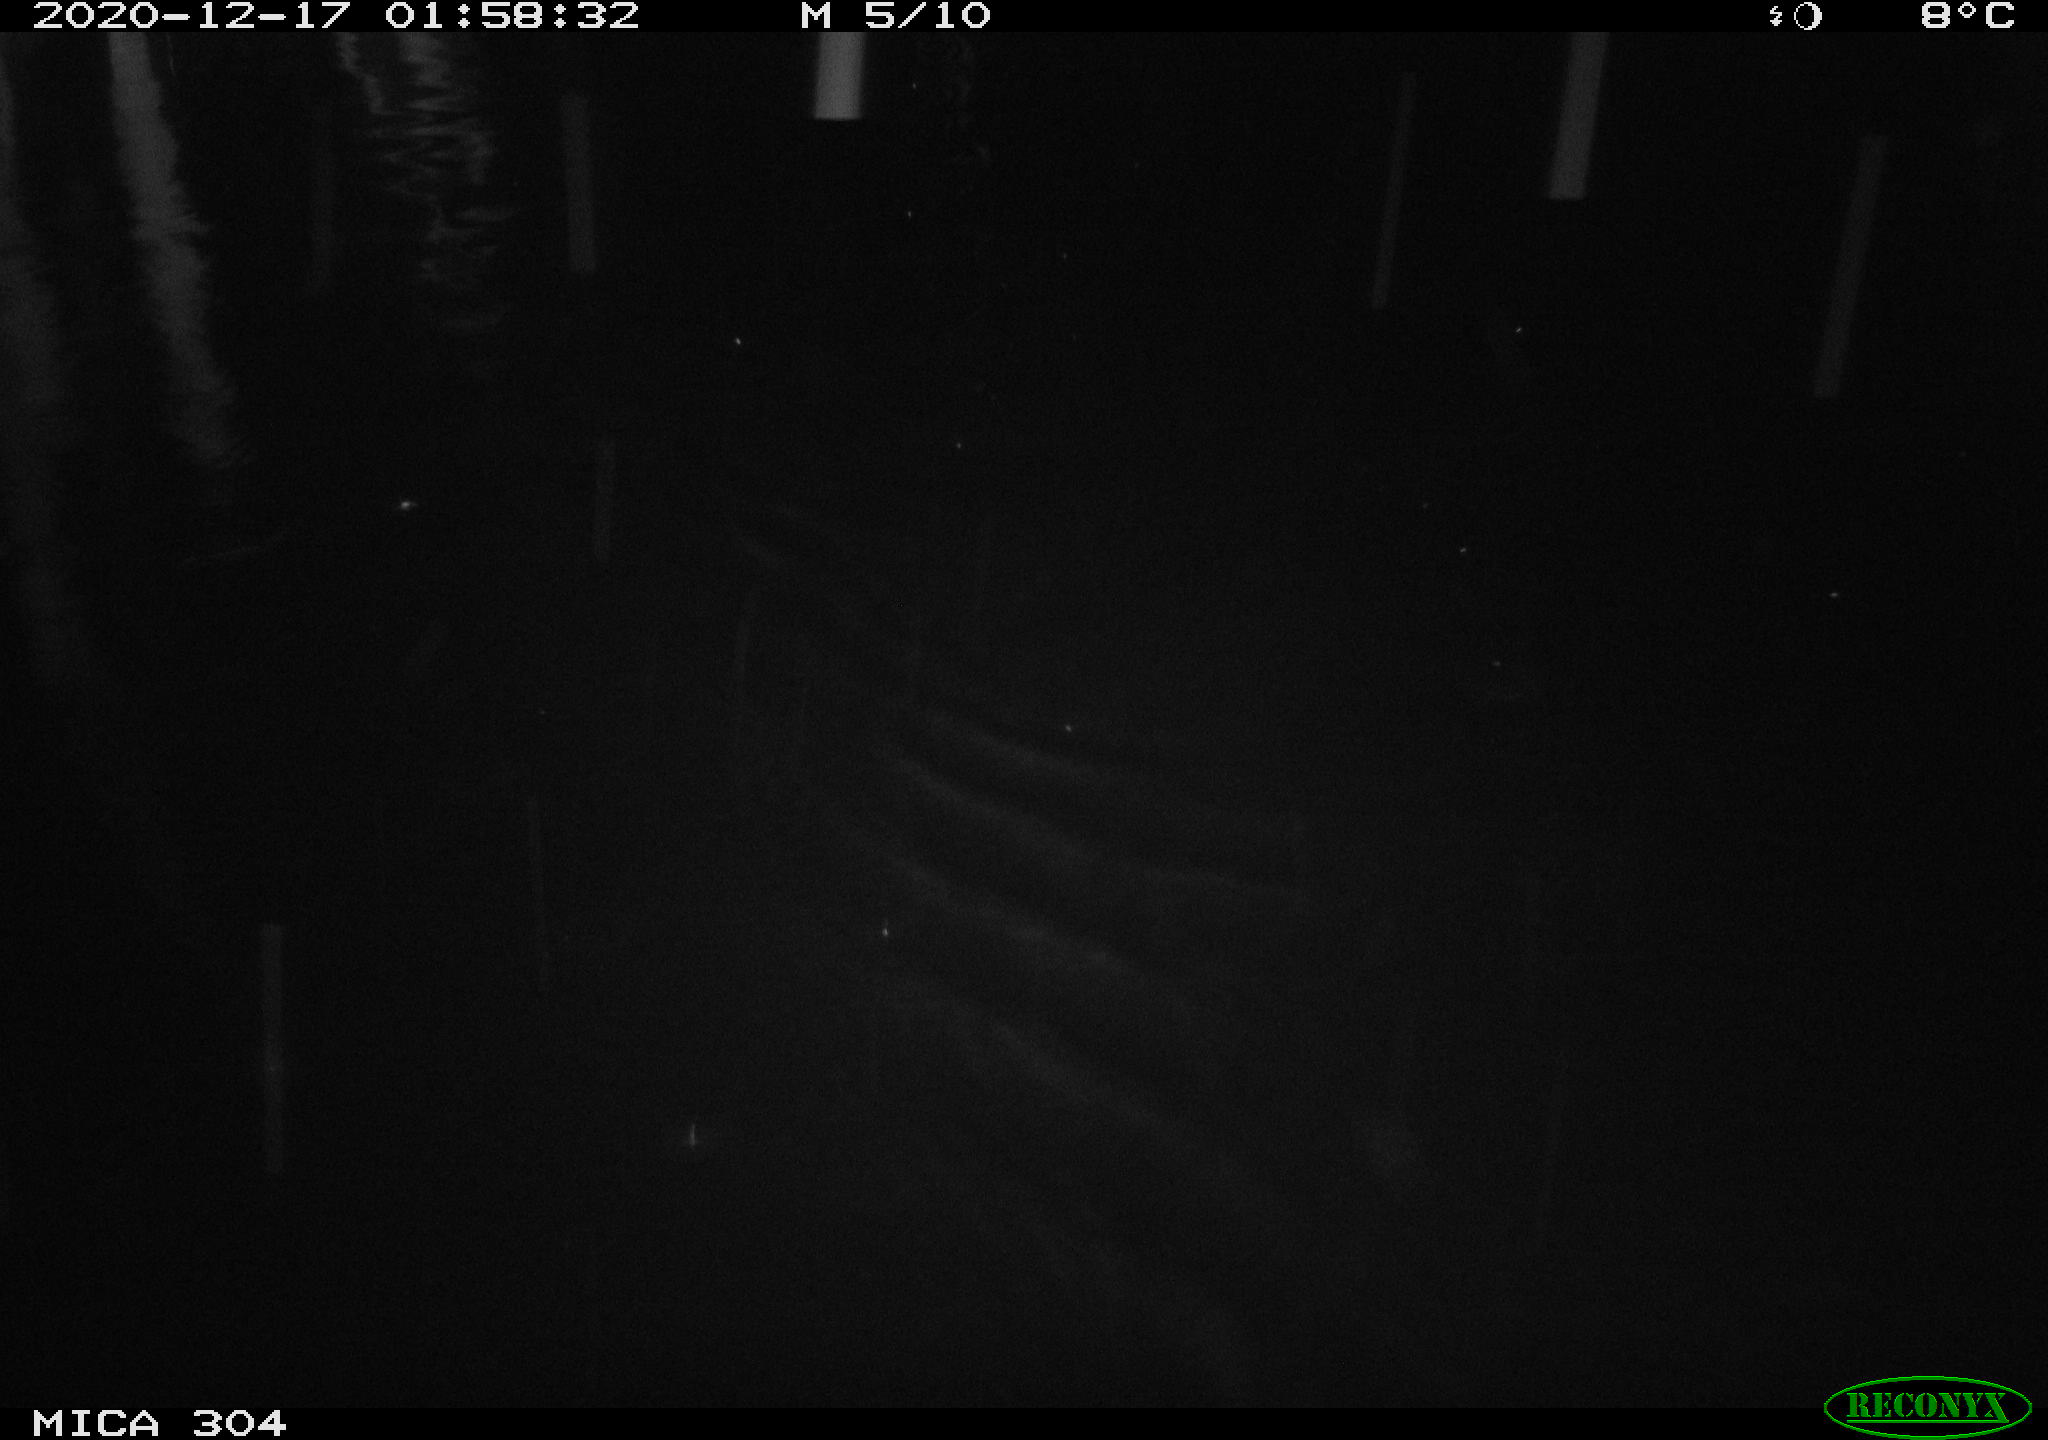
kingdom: Animalia
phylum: Chordata
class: Mammalia
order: Rodentia
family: Cricetidae
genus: Ondatra
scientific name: Ondatra zibethicus
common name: Muskrat
